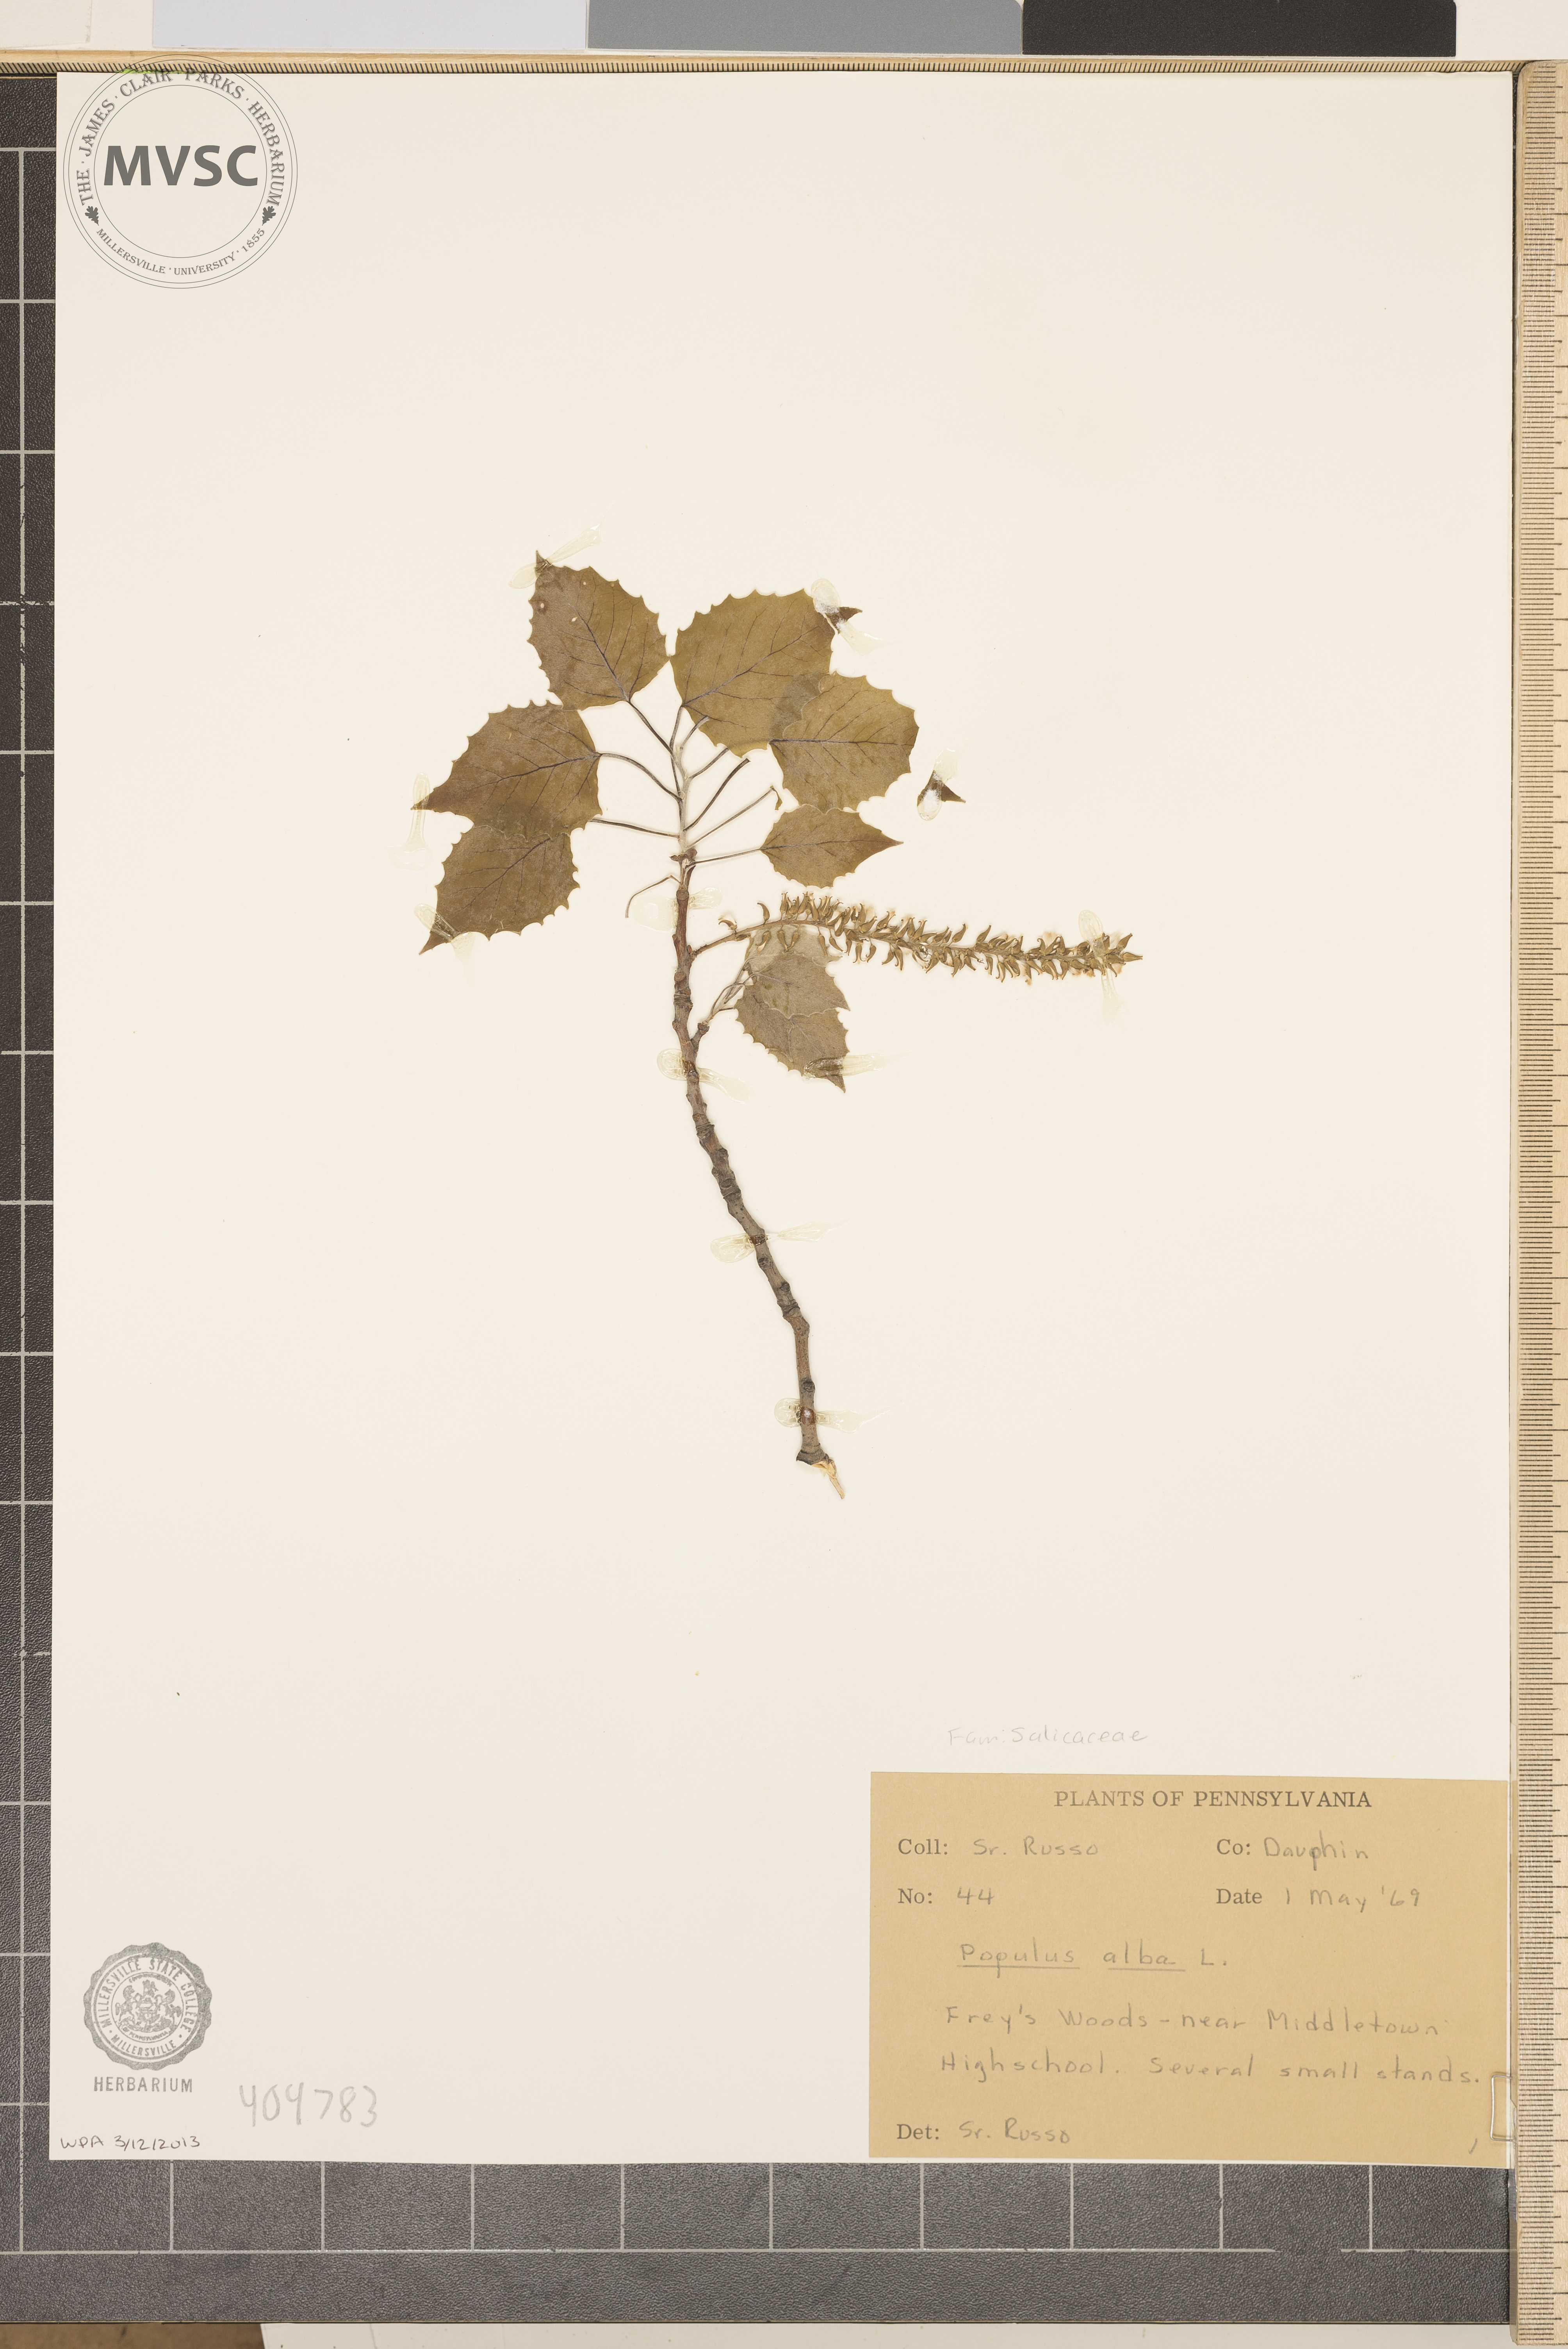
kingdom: Plantae
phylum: Tracheophyta
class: Magnoliopsida
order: Malpighiales
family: Salicaceae
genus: Populus
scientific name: Populus grandidentata
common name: Bigtooth aspen
